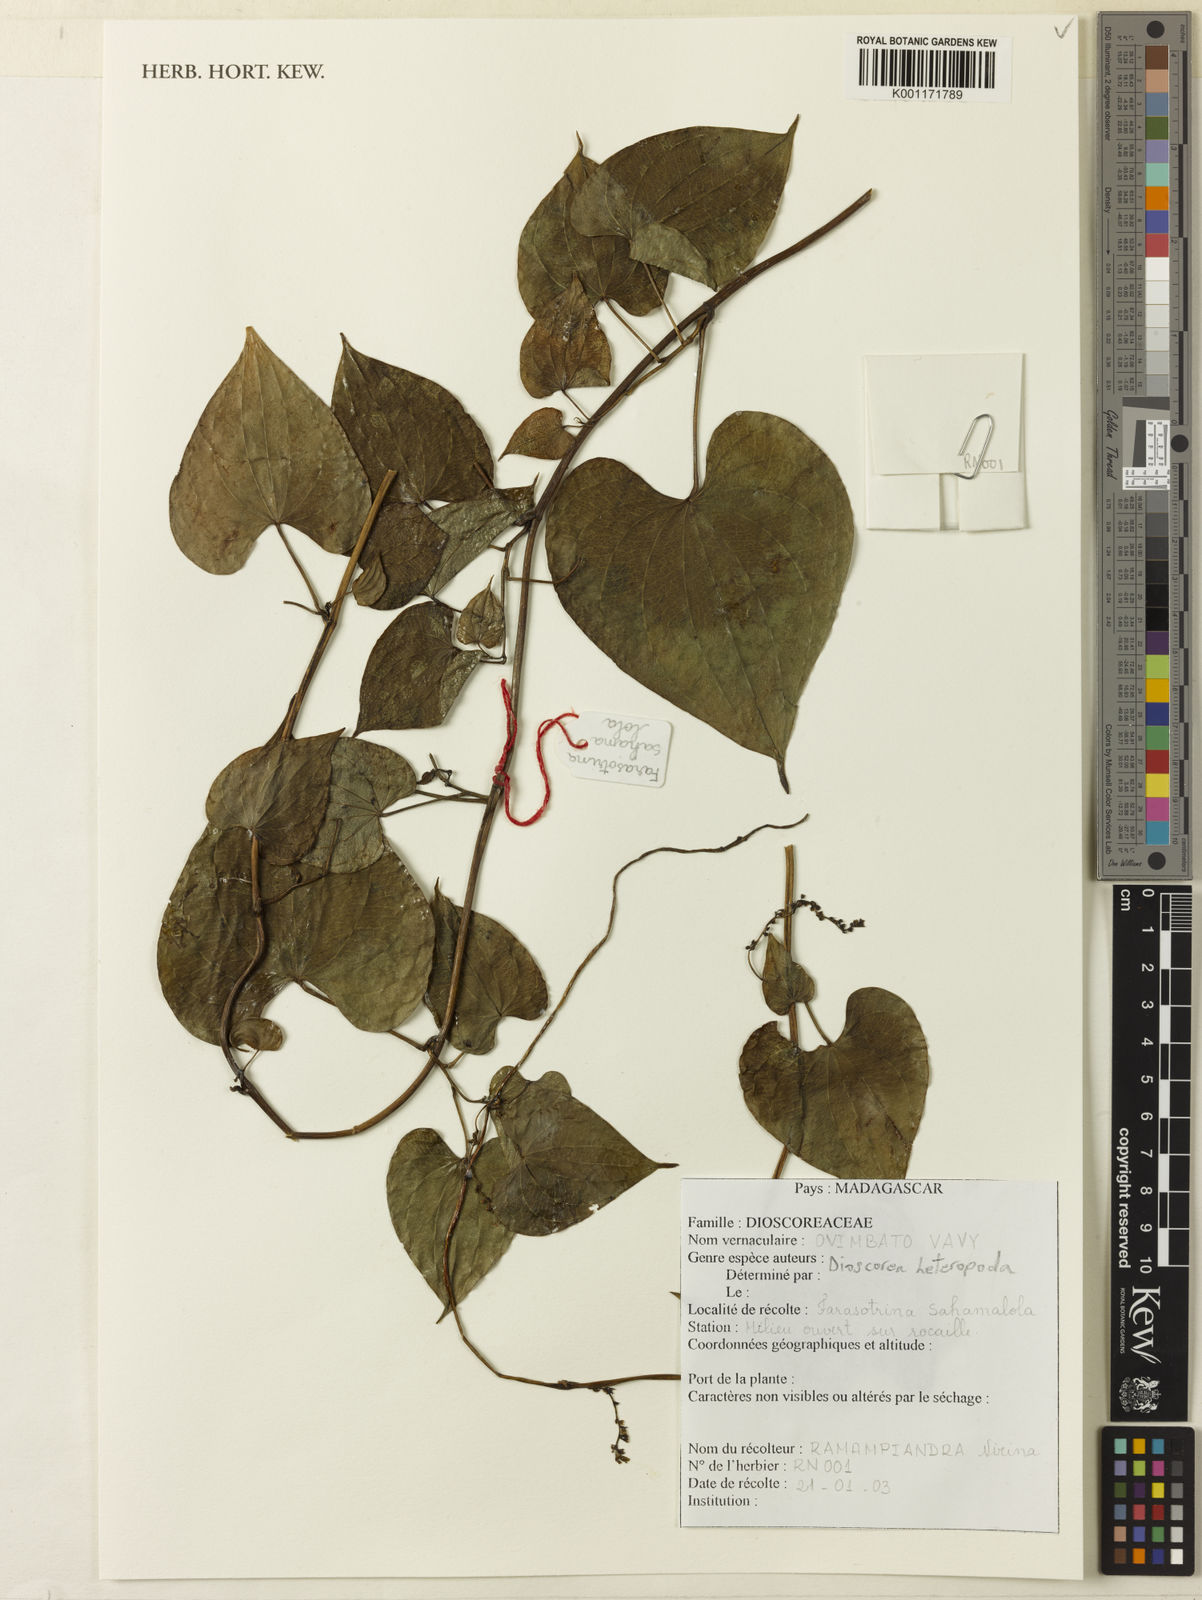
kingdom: Plantae
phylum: Tracheophyta
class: Liliopsida
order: Dioscoreales
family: Dioscoreaceae
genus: Dioscorea
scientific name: Dioscorea heteropoda
